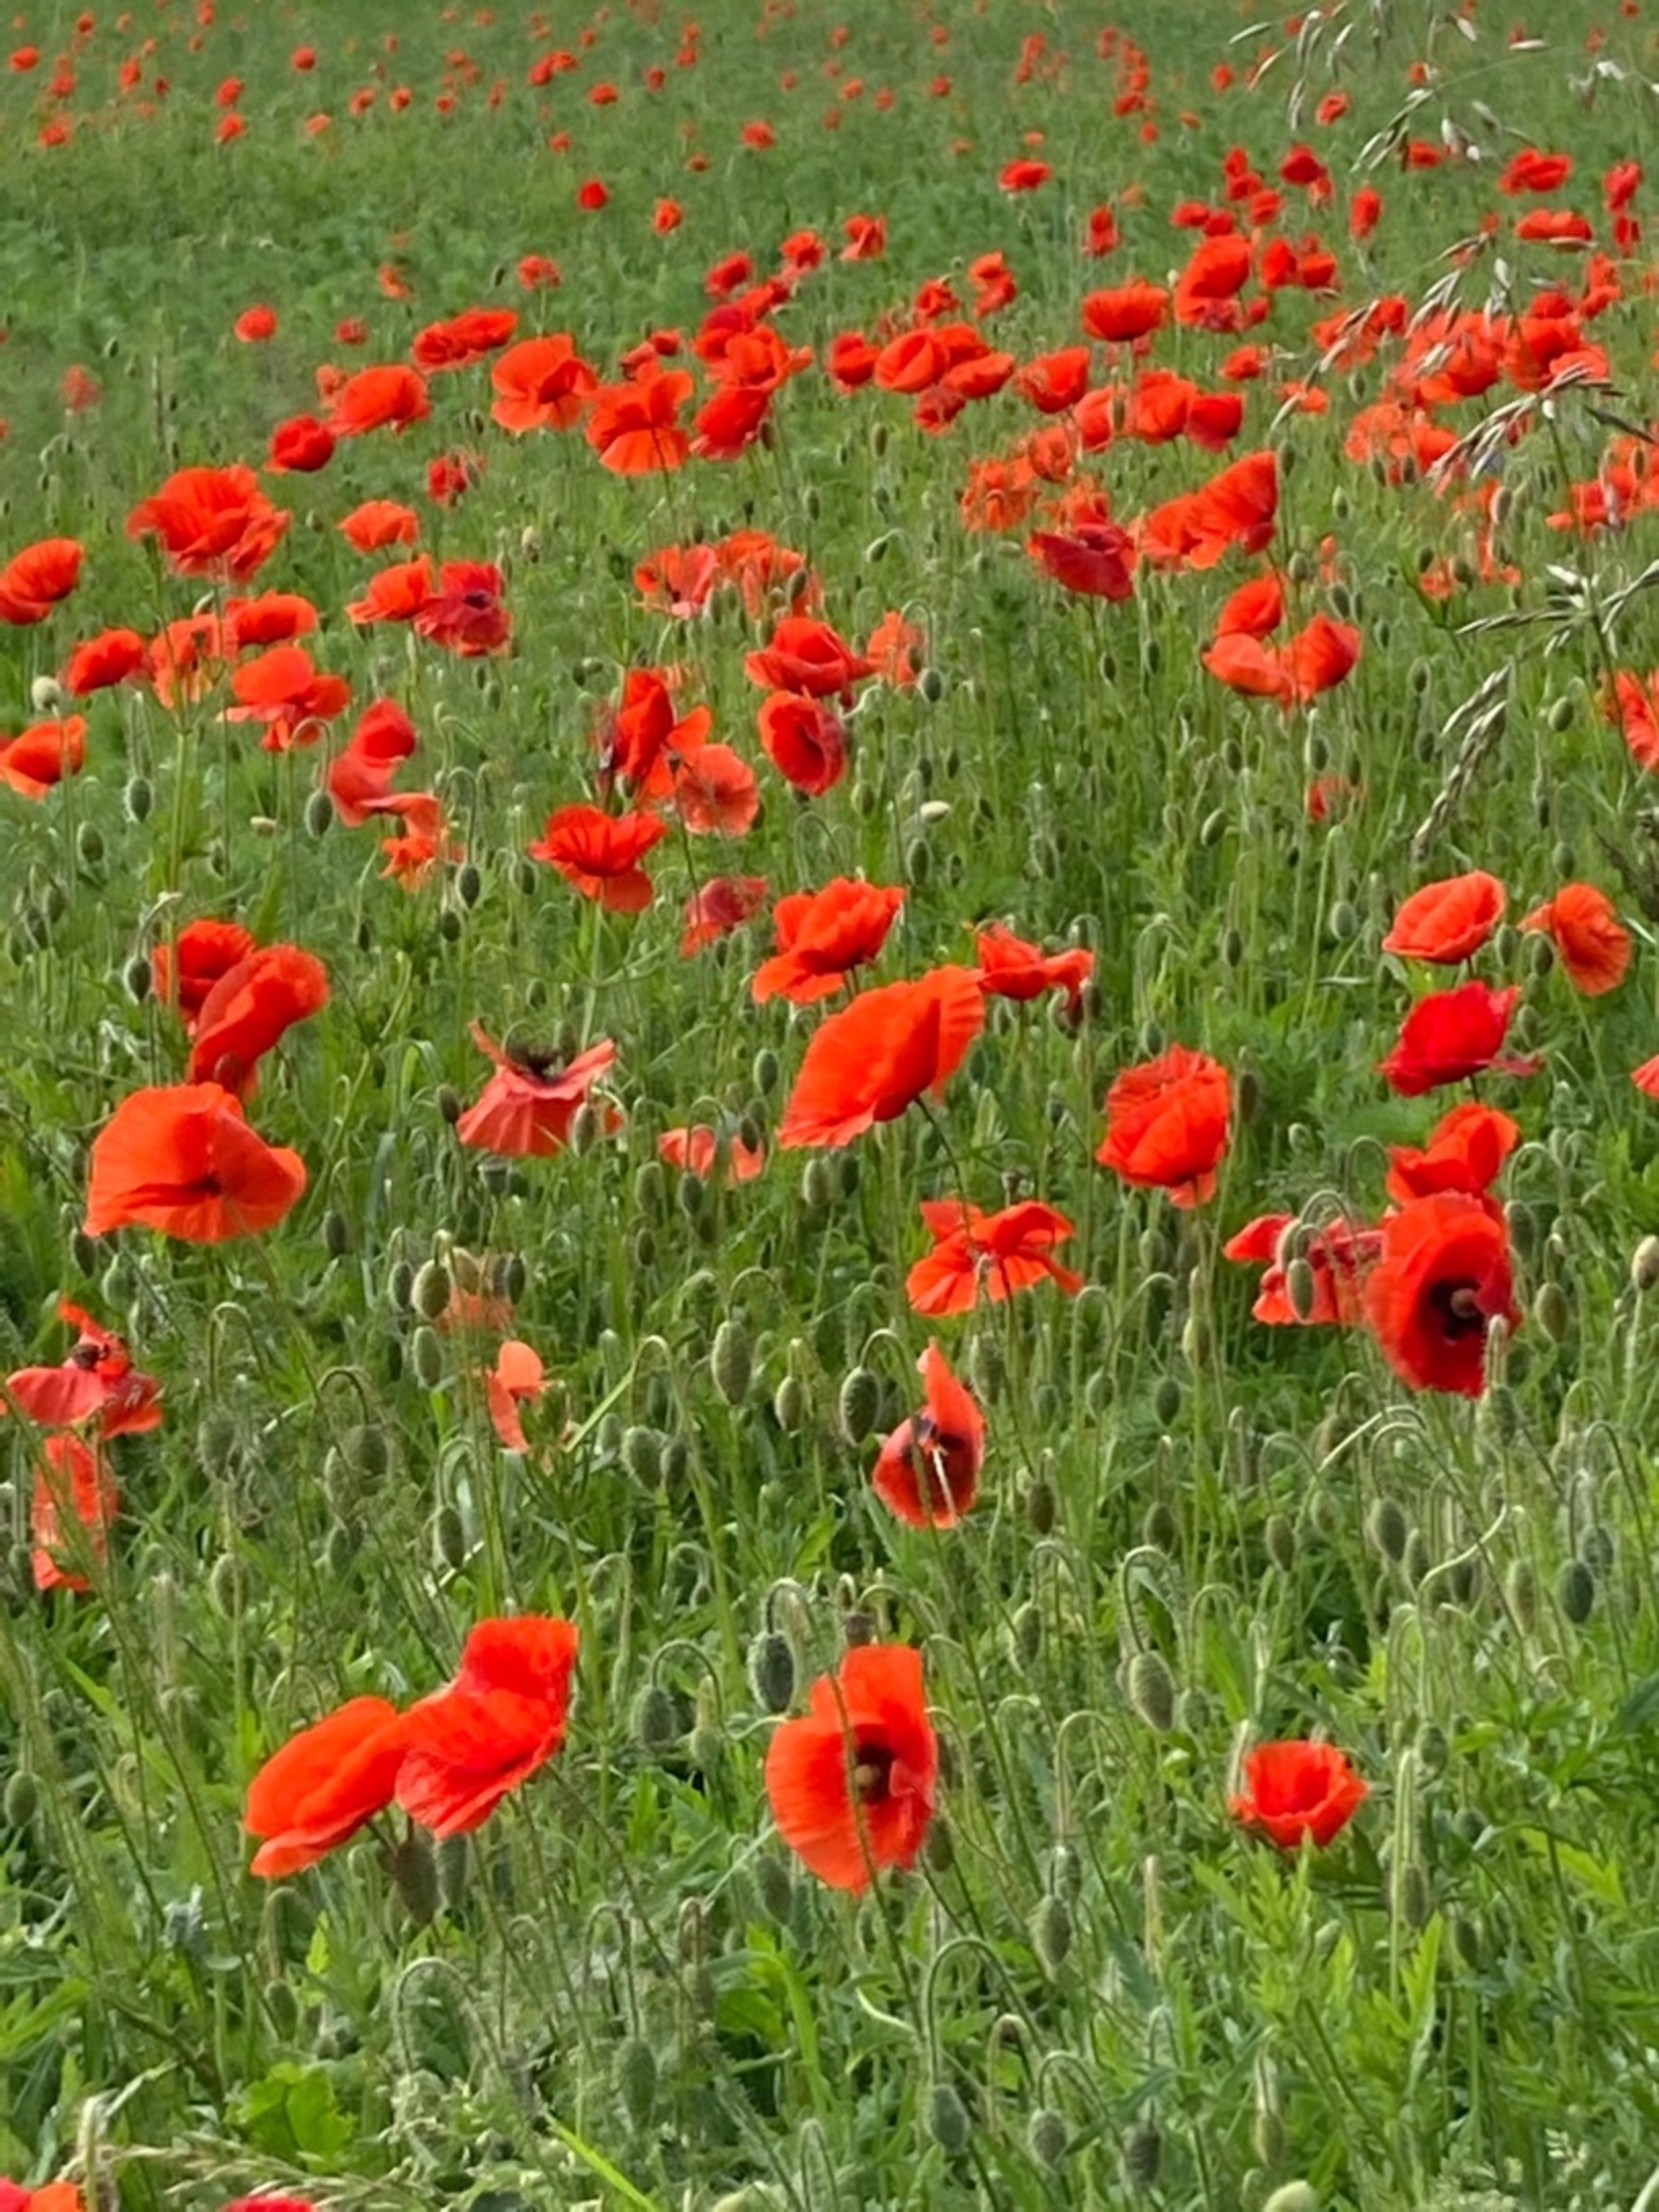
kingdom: Plantae
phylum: Tracheophyta
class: Magnoliopsida
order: Ranunculales
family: Papaveraceae
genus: Papaver
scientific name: Papaver rhoeas
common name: Korn-valmue
